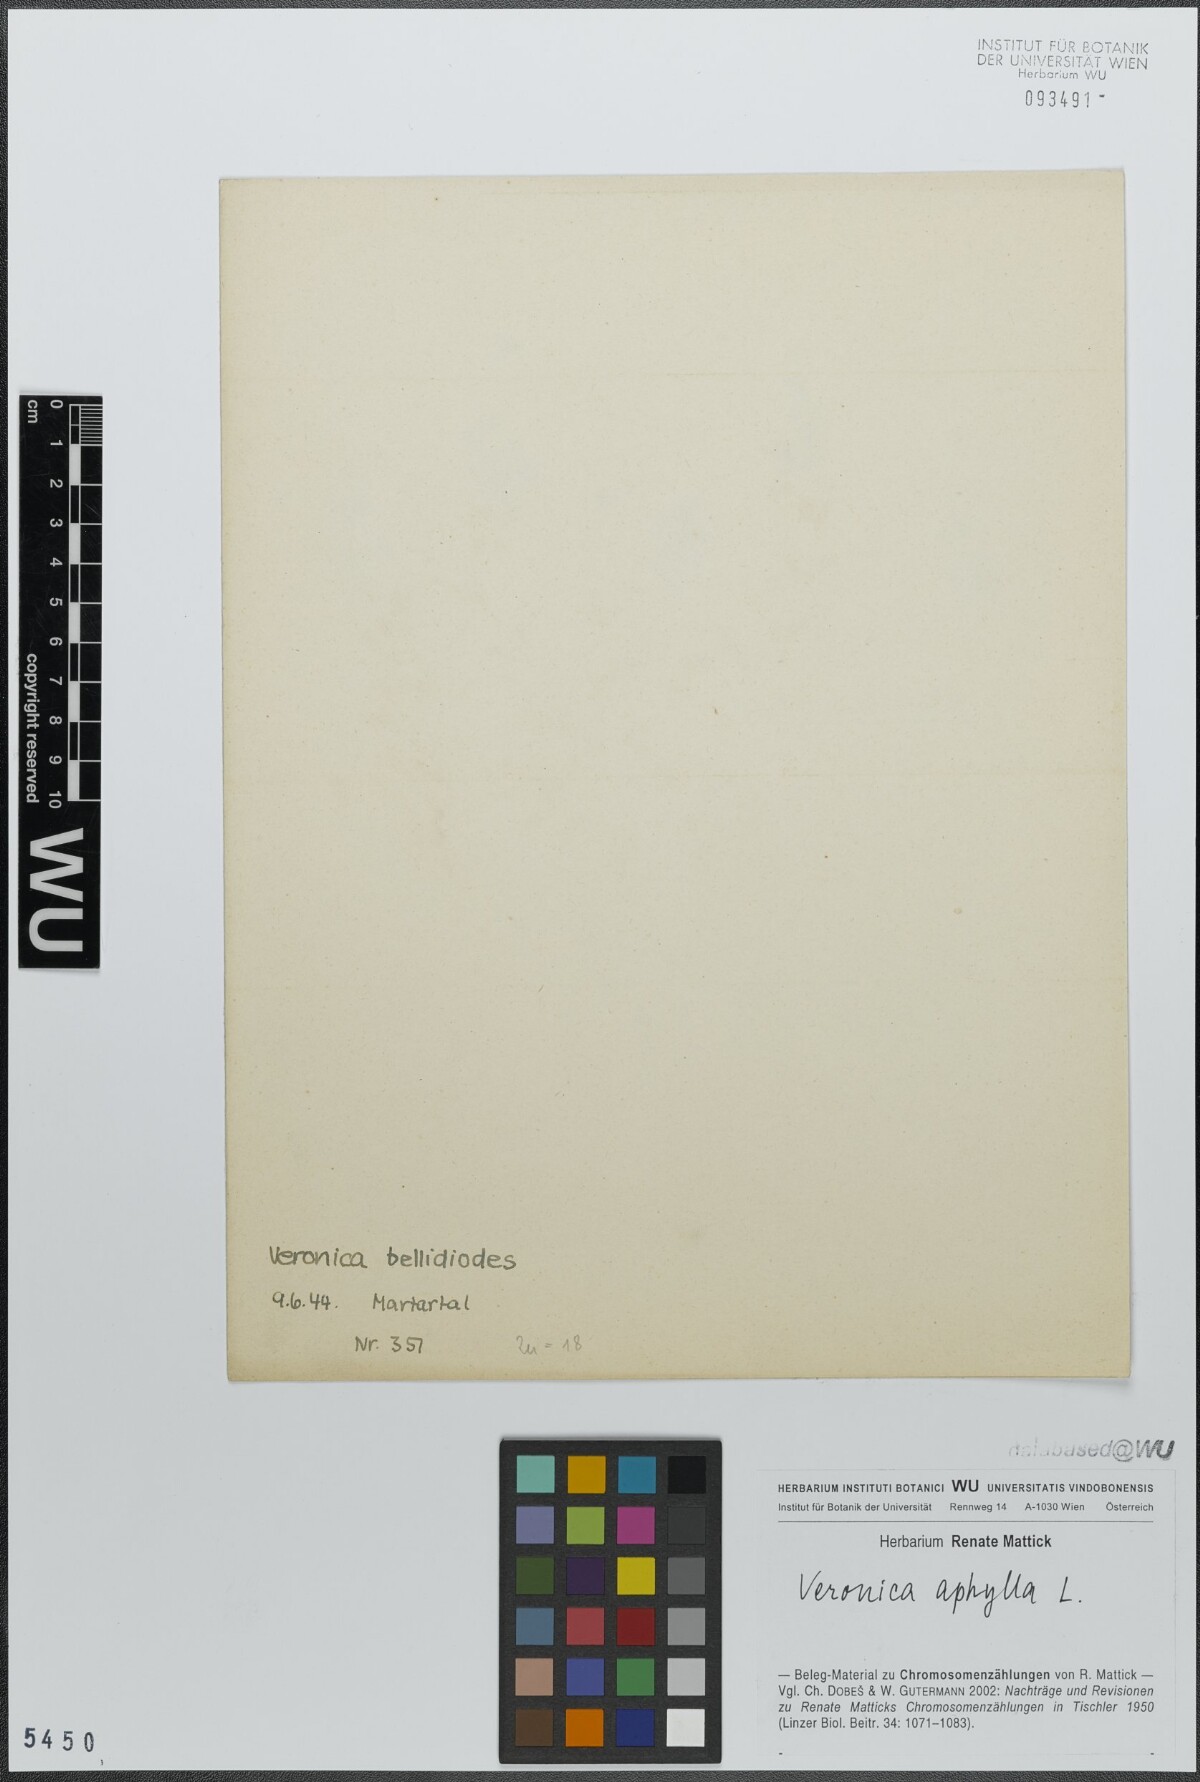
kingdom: Plantae
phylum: Tracheophyta
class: Magnoliopsida
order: Lamiales
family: Plantaginaceae
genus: Veronica
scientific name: Veronica aphylla
